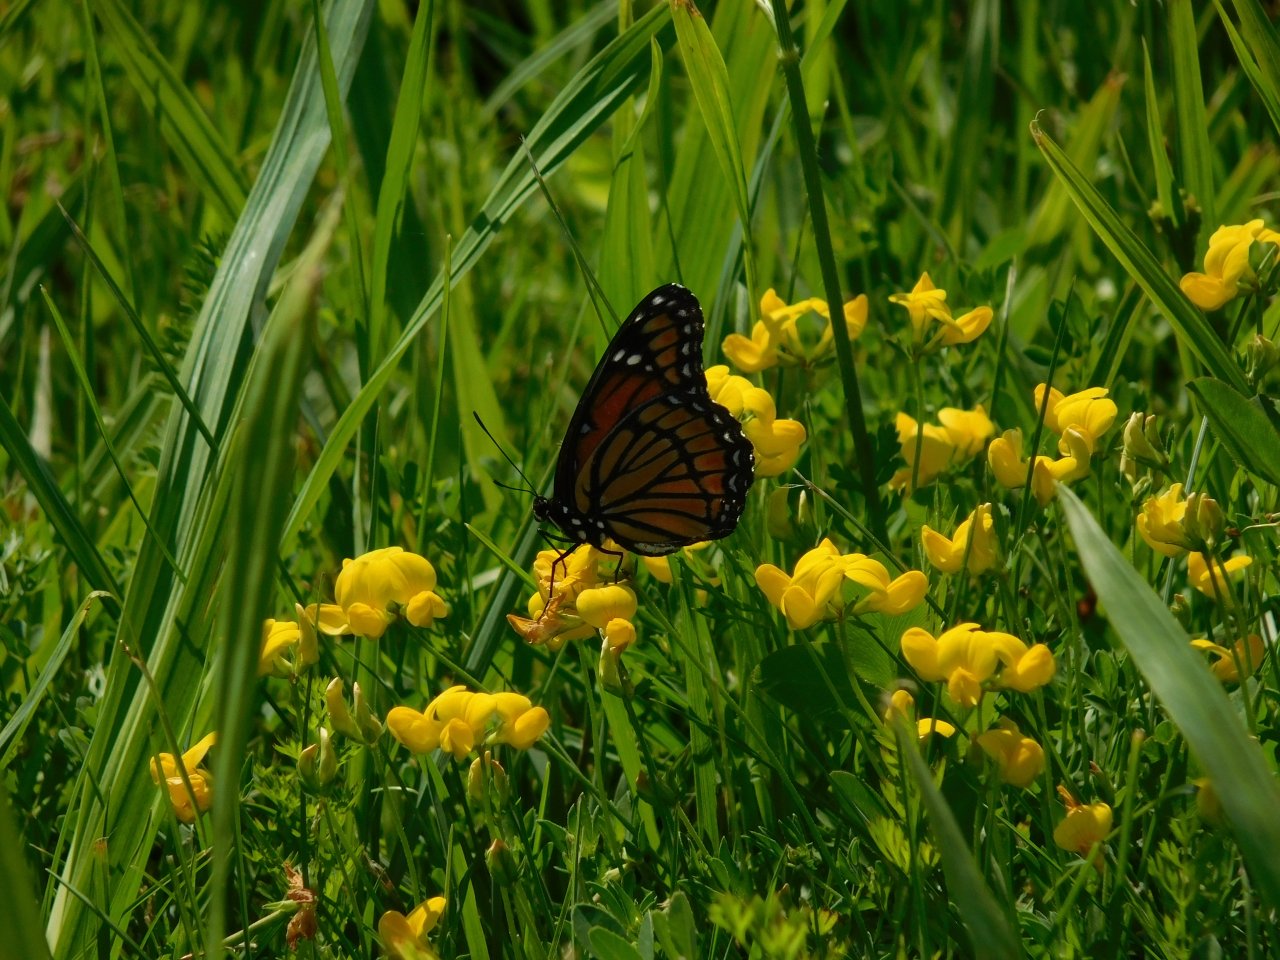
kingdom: Animalia
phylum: Arthropoda
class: Insecta
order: Lepidoptera
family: Nymphalidae
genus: Limenitis
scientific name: Limenitis archippus
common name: Viceroy
